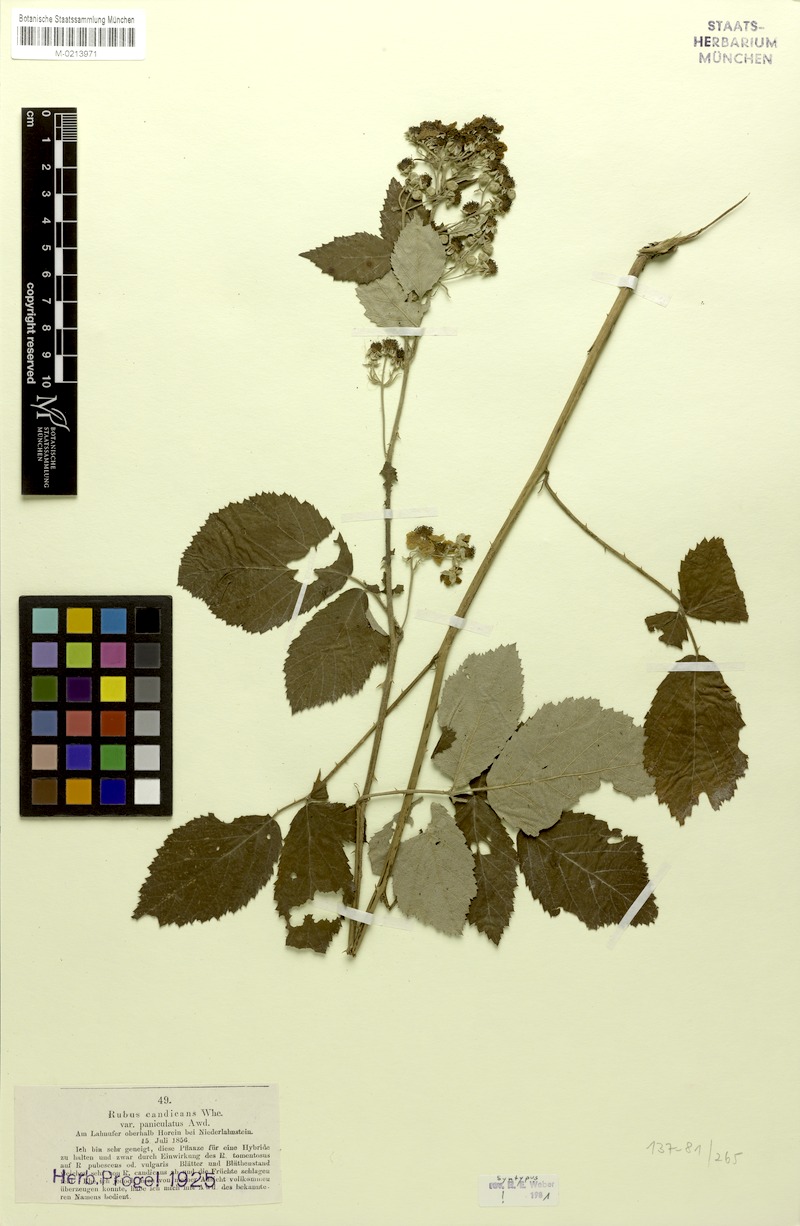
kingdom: Plantae
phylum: Tracheophyta
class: Magnoliopsida
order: Rosales
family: Rosaceae
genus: Rubus
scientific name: Rubus montanus
